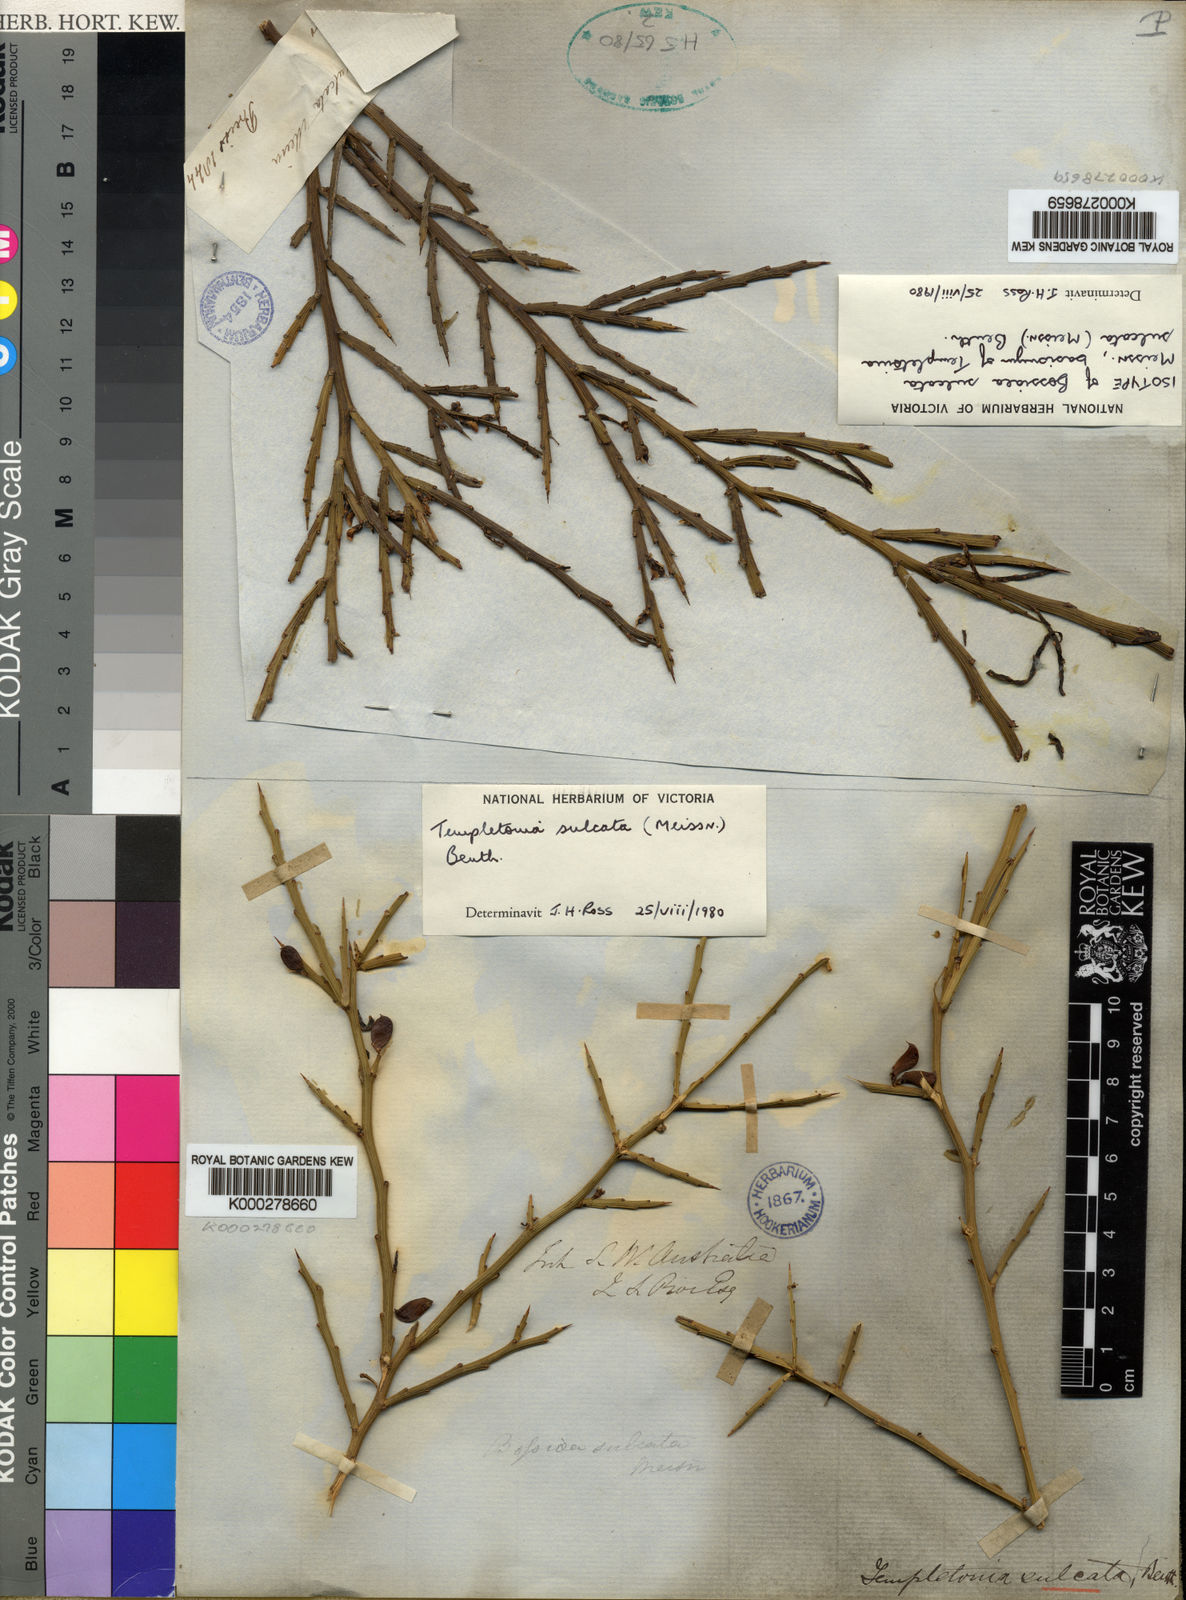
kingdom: Plantae
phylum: Tracheophyta
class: Magnoliopsida
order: Fabales
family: Fabaceae
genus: Templetonia
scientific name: Templetonia sulcata
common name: Flat mallee-pea
